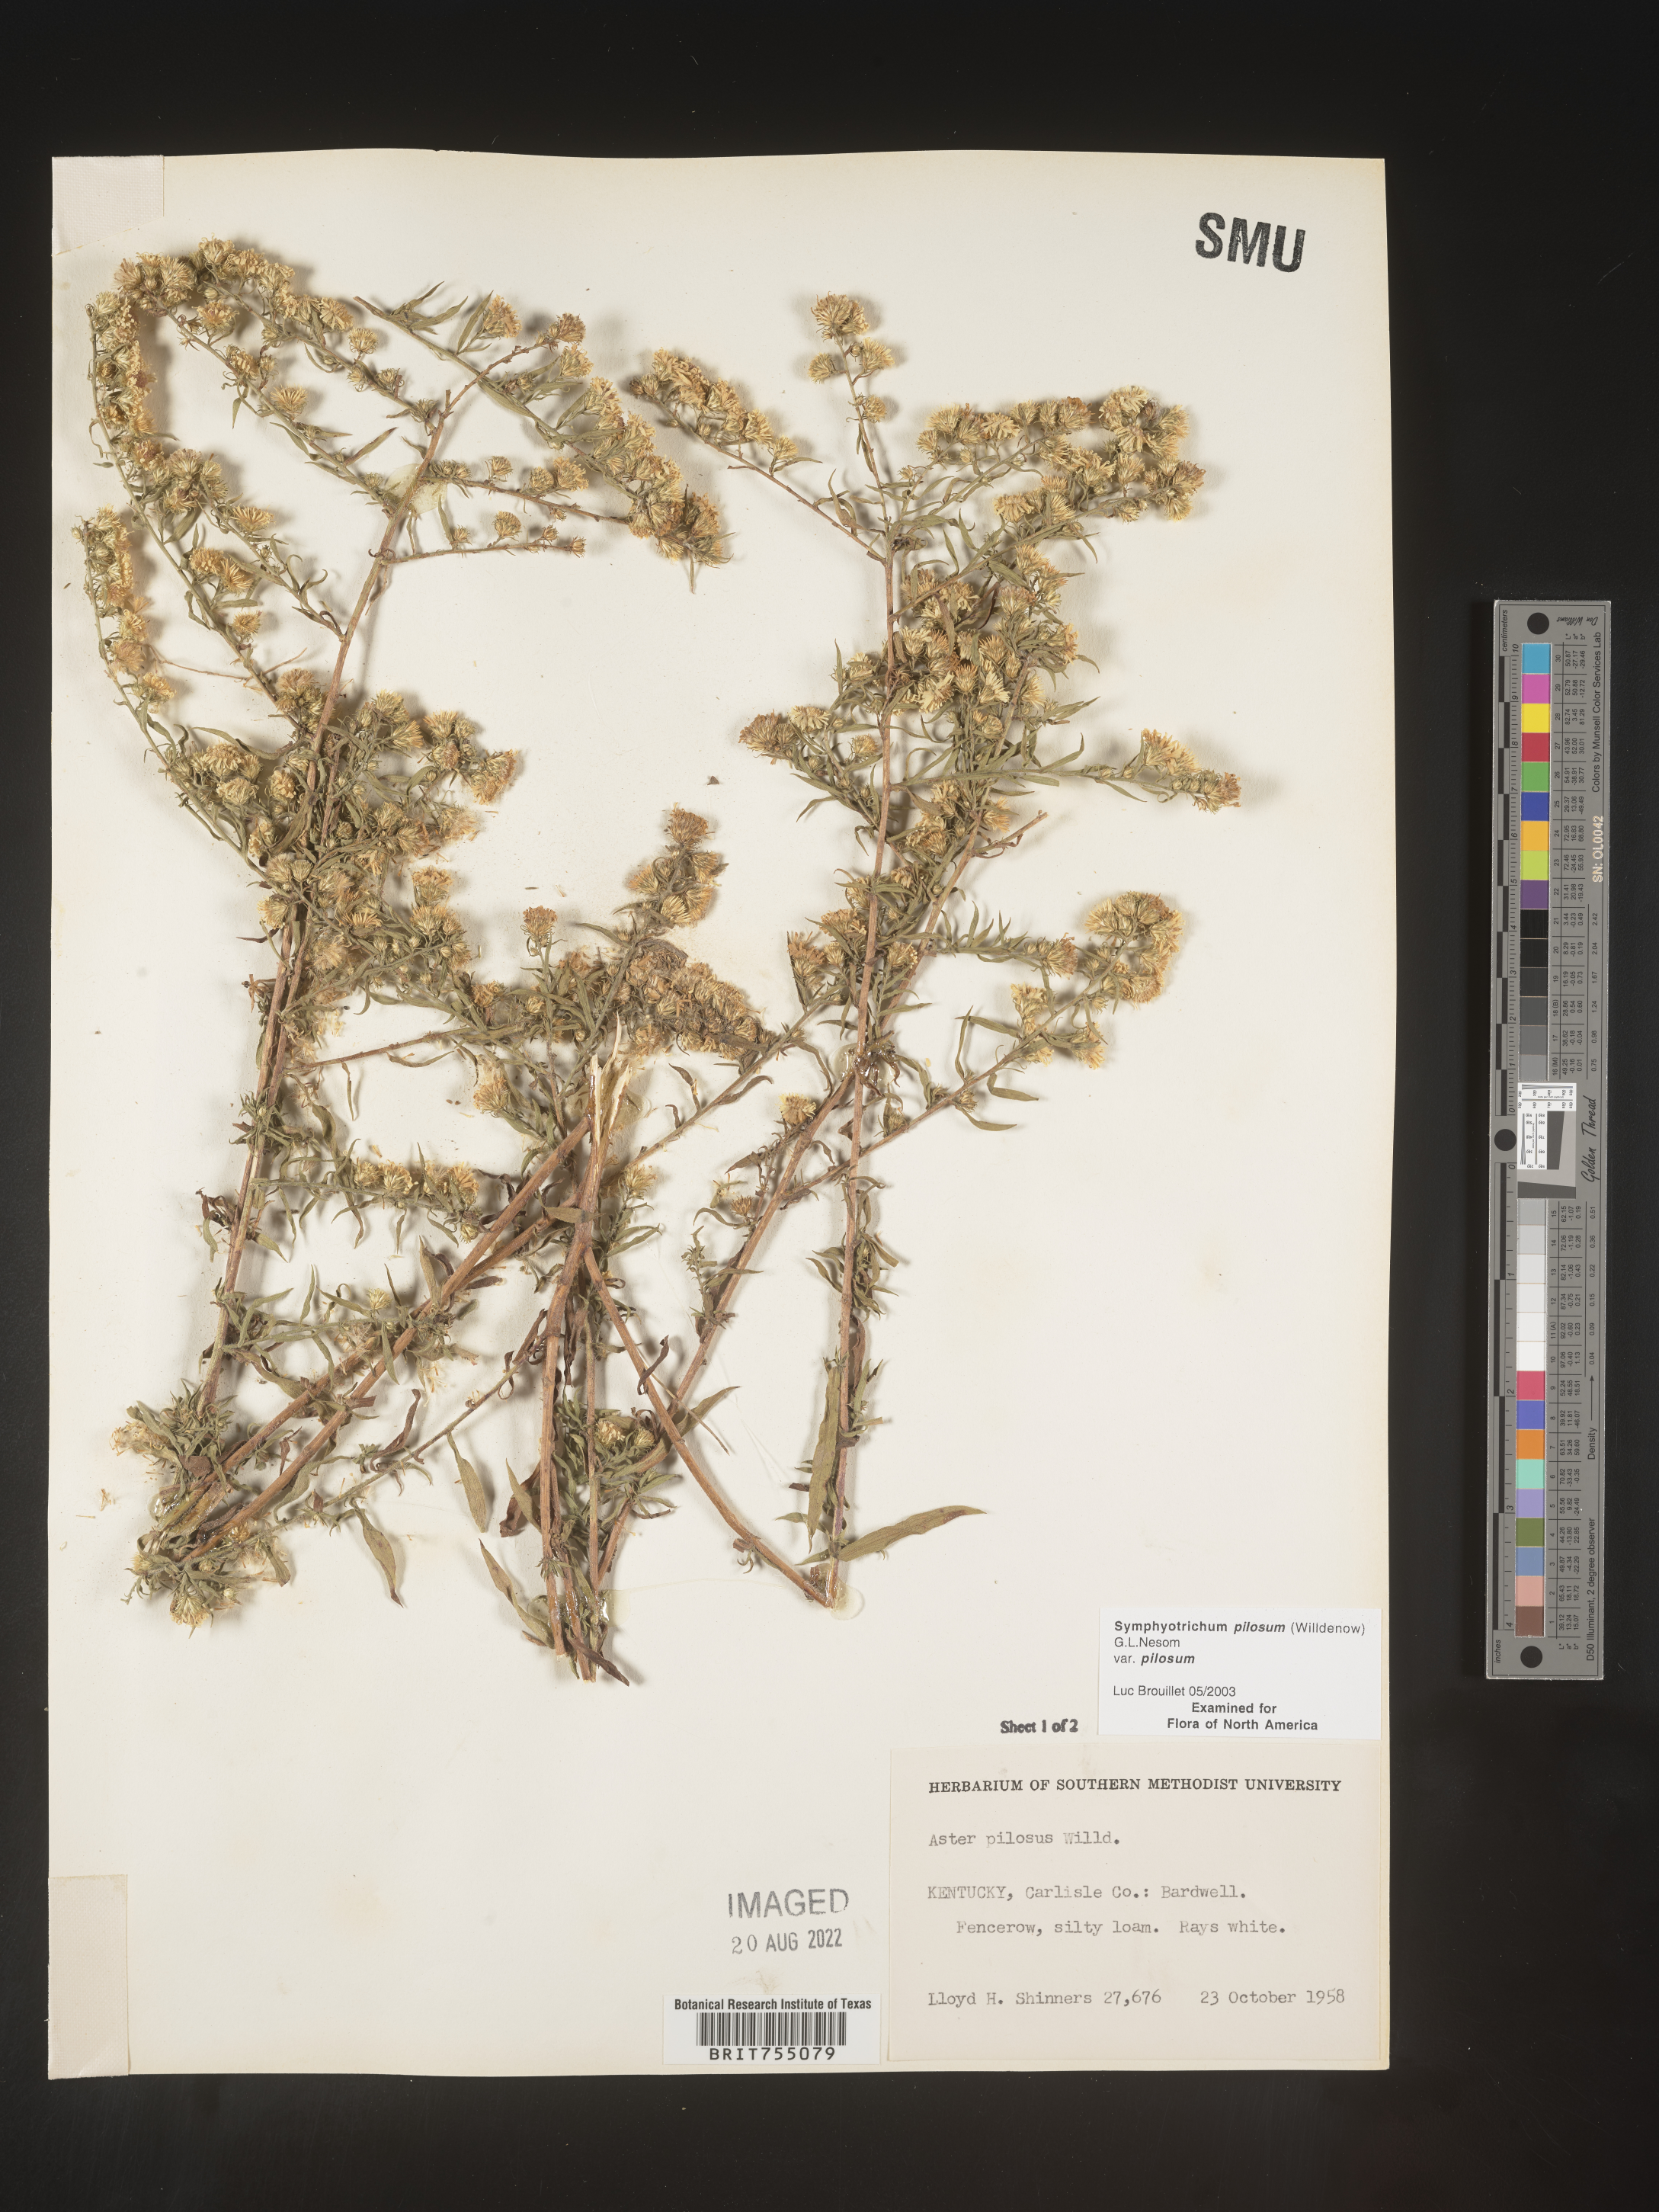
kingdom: Plantae
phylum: Tracheophyta
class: Magnoliopsida
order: Asterales
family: Asteraceae
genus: Symphyotrichum
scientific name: Symphyotrichum pilosum
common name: Awl aster
